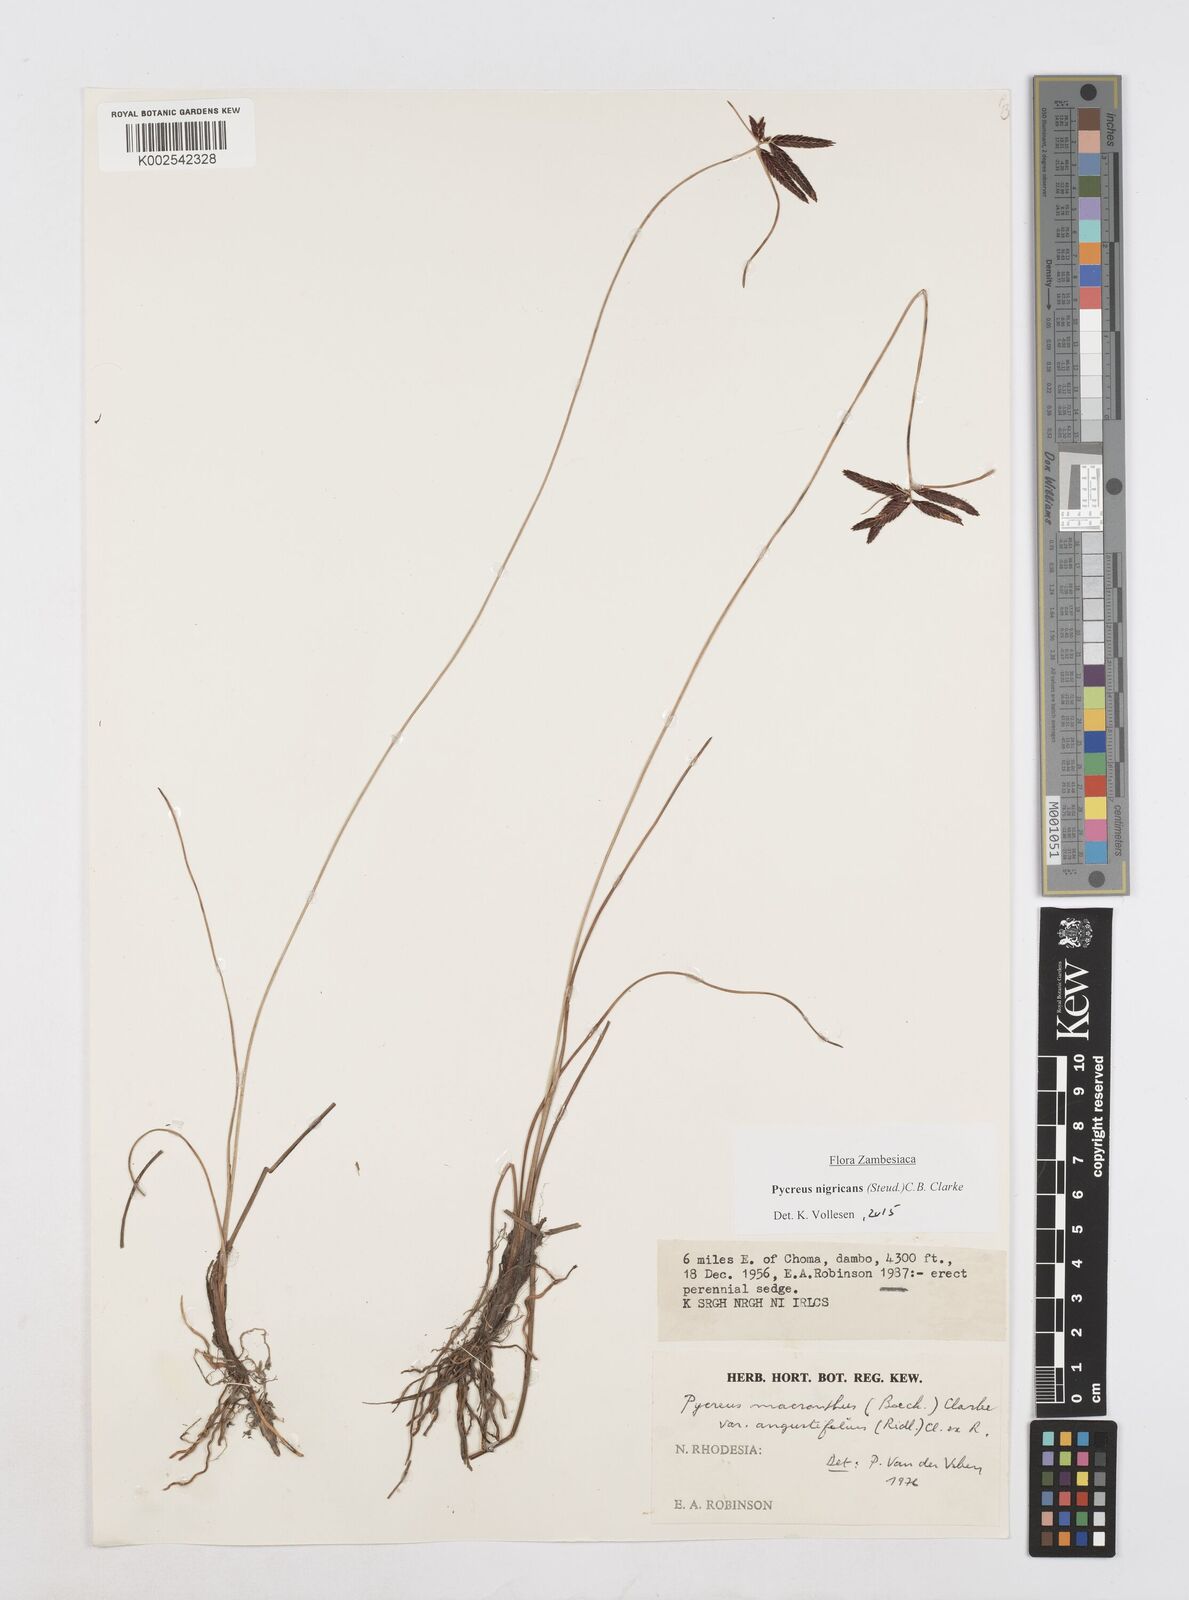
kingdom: Plantae
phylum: Tracheophyta
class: Liliopsida
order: Poales
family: Cyperaceae
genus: Cyperus
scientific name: Cyperus nigricans
